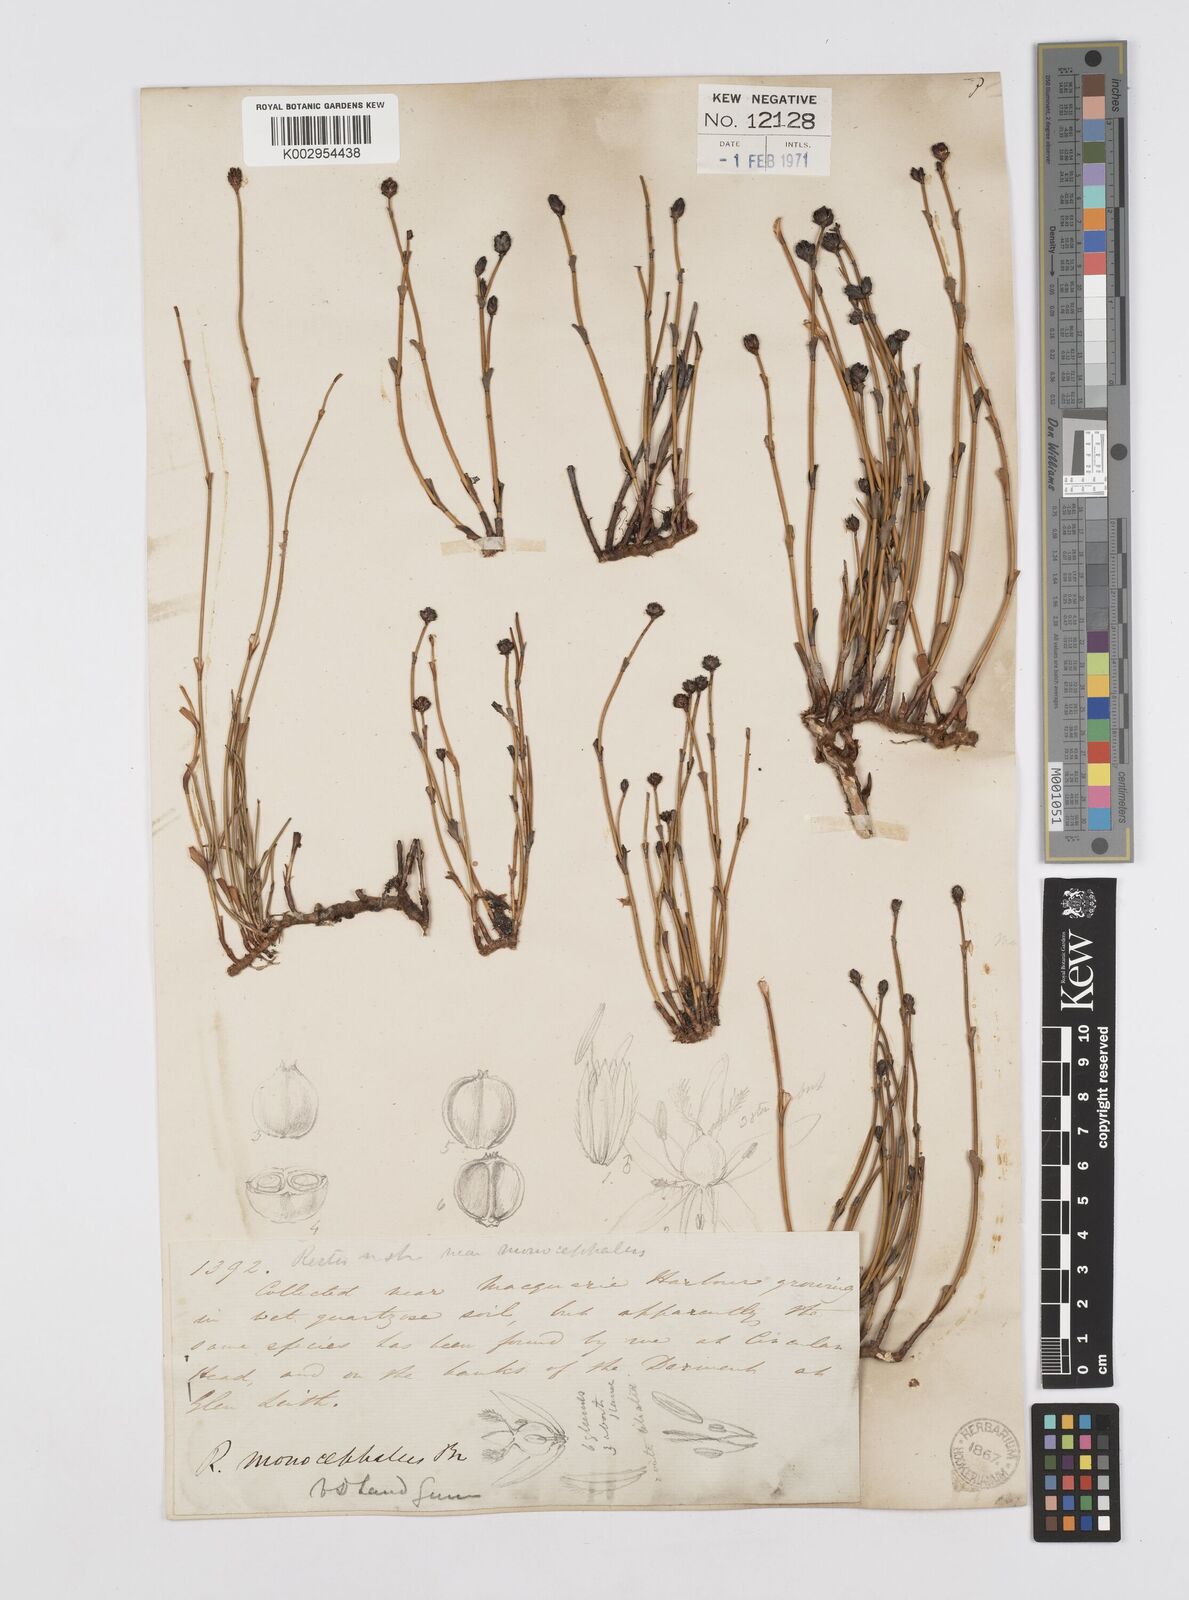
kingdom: Plantae
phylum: Tracheophyta
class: Liliopsida
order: Poales
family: Restionaceae
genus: Chordifex
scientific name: Chordifex hookeri
